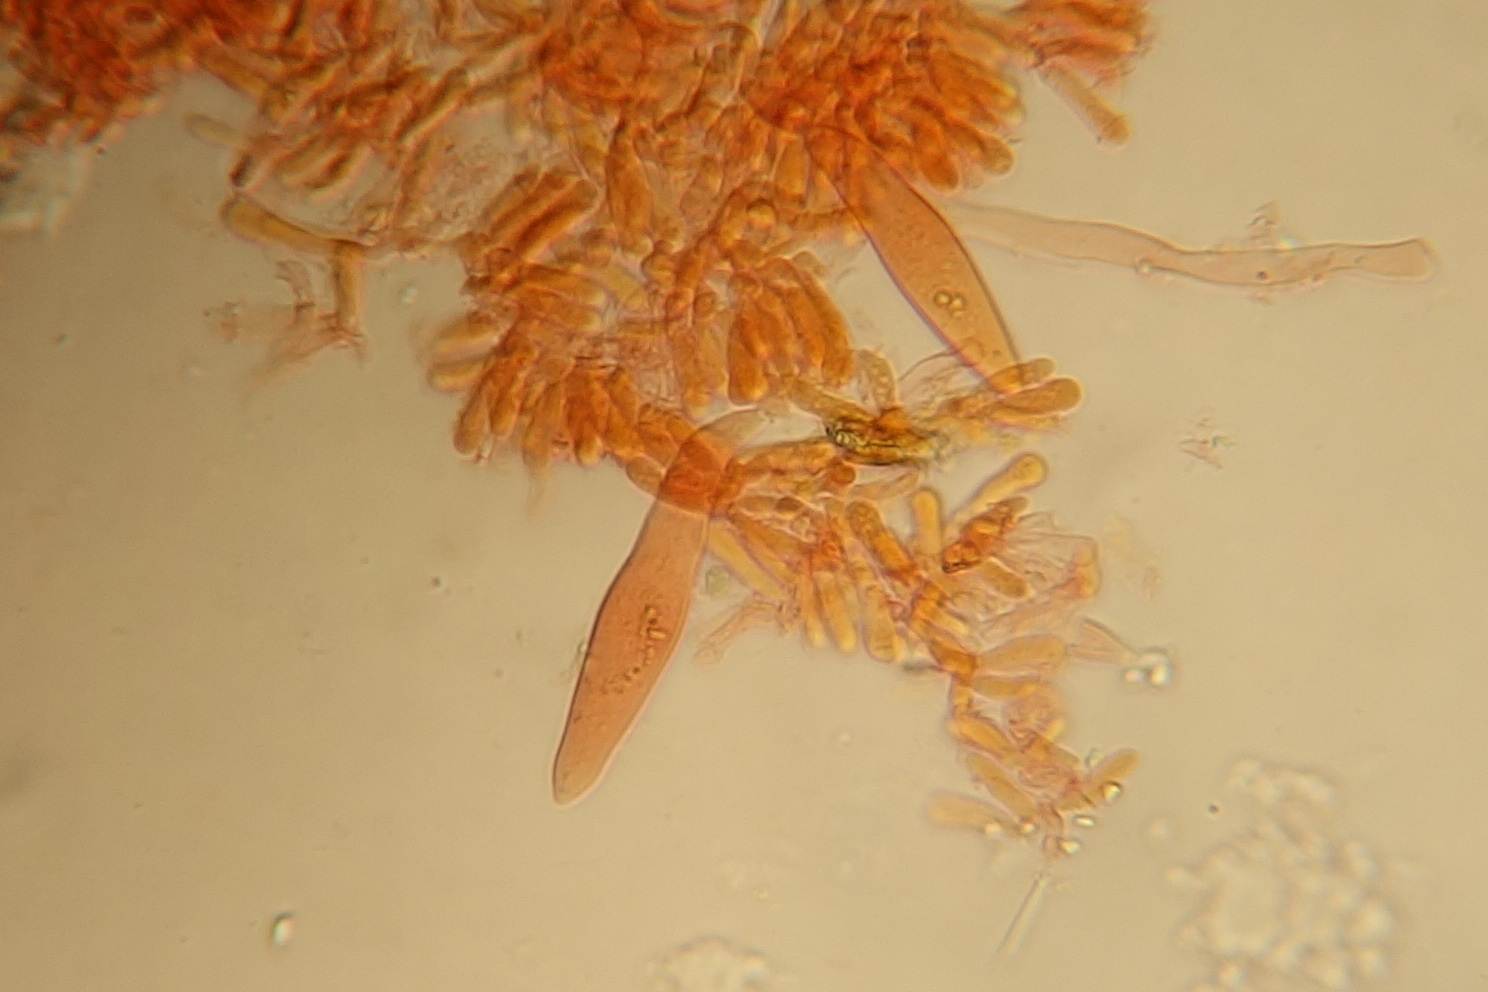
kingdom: Fungi
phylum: Basidiomycota
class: Agaricomycetes
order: Agaricales
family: Physalacriaceae
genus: Strobilurus
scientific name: Strobilurus tenacellus
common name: Pinecone cap
